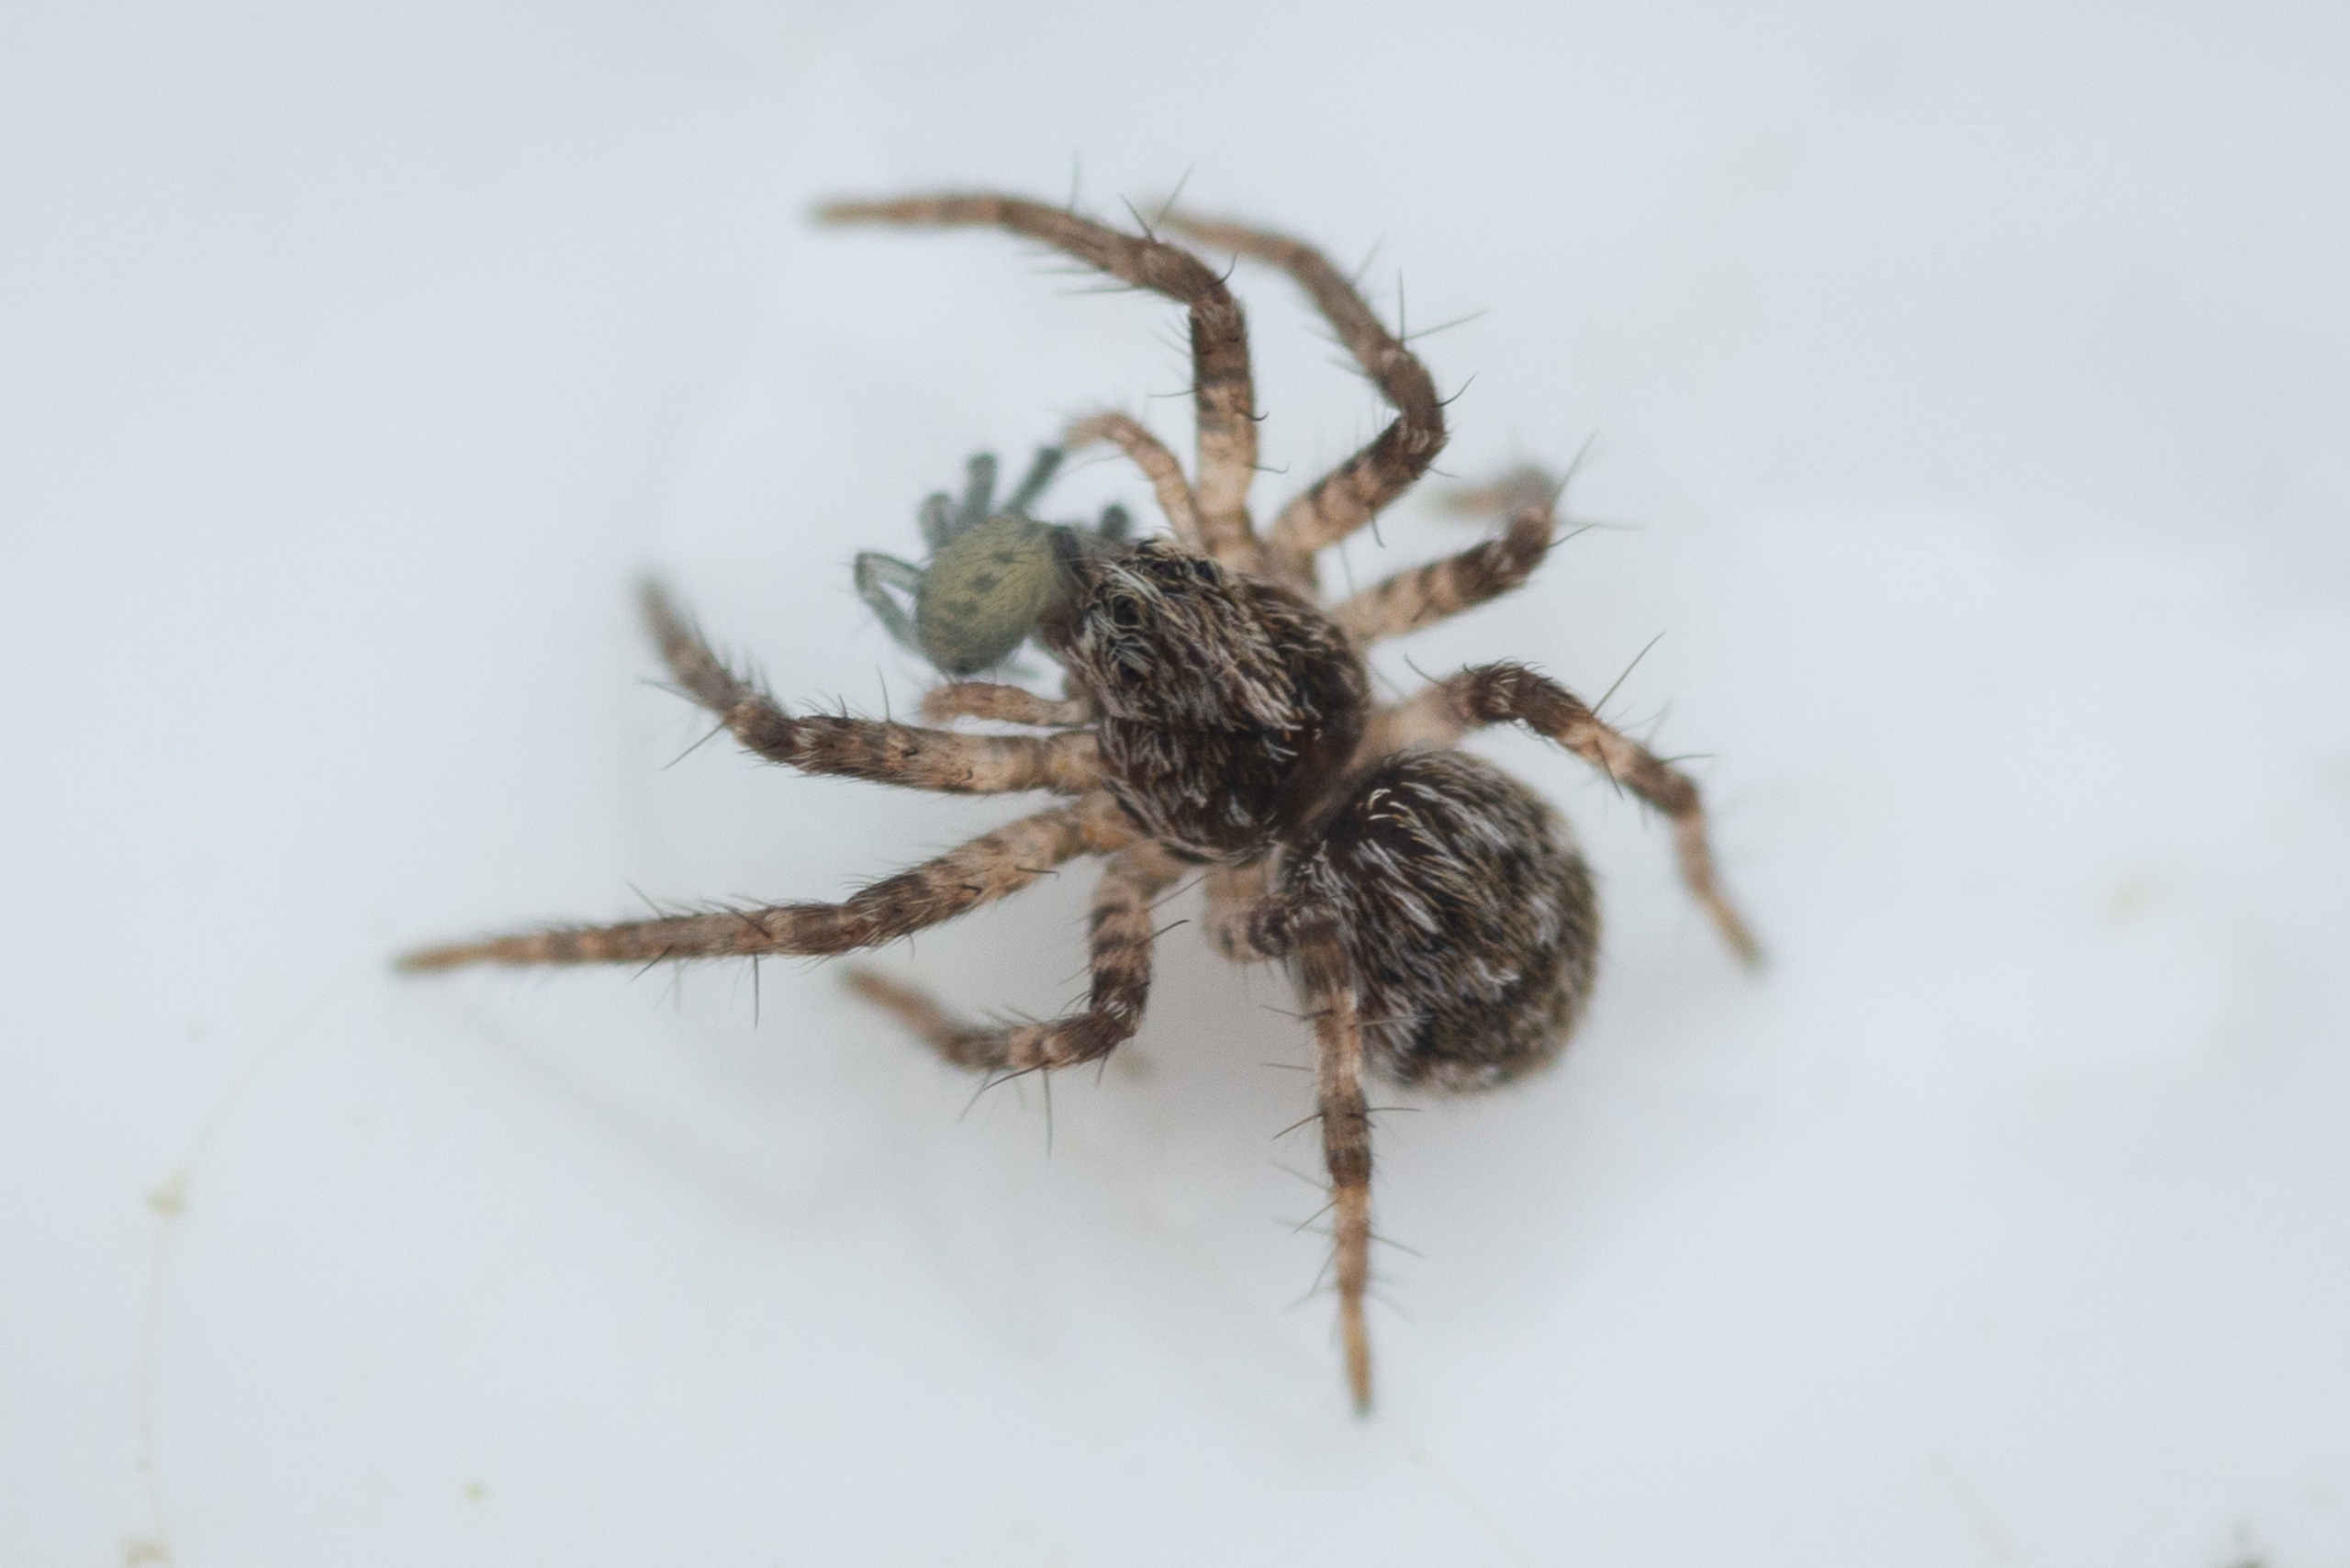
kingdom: Animalia
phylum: Arthropoda
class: Arachnida
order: Araneae
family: Pisauridae
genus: Pisaura
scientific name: Pisaura mirabilis
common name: Almindelig rovedderkop
